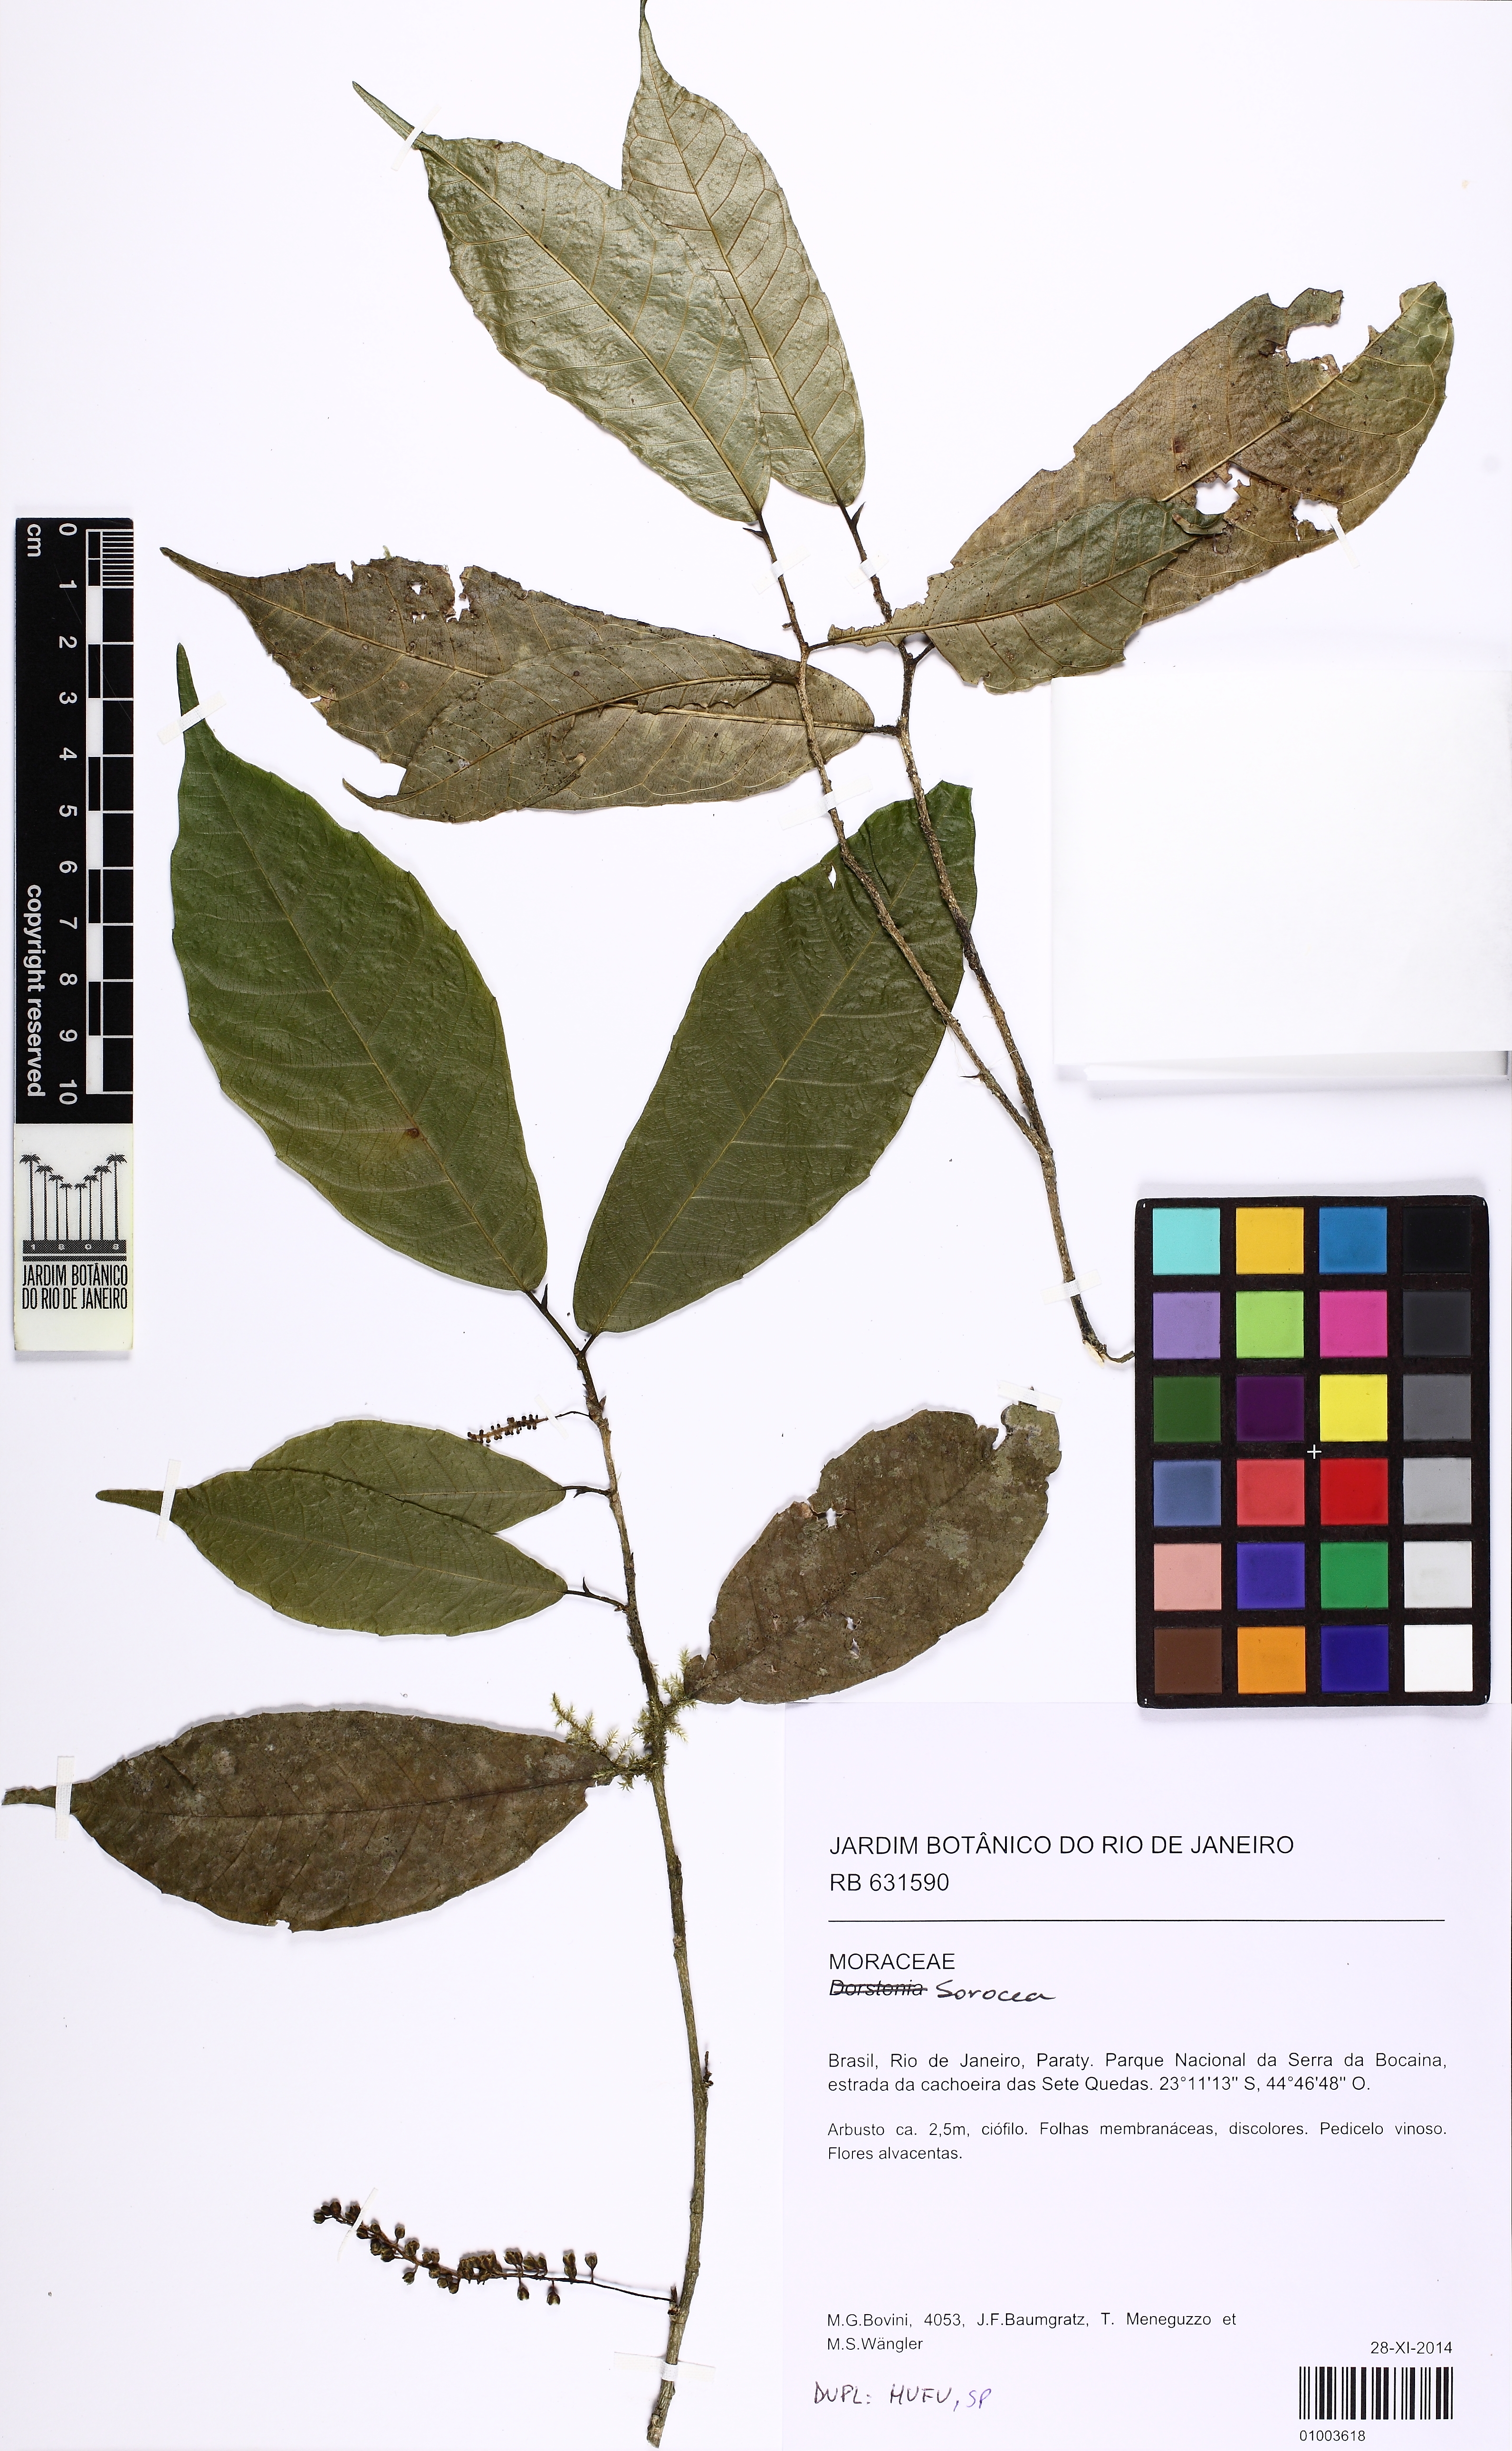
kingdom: Plantae
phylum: Tracheophyta
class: Magnoliopsida
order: Rosales
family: Moraceae
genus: Dorstenia
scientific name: Dorstenia
